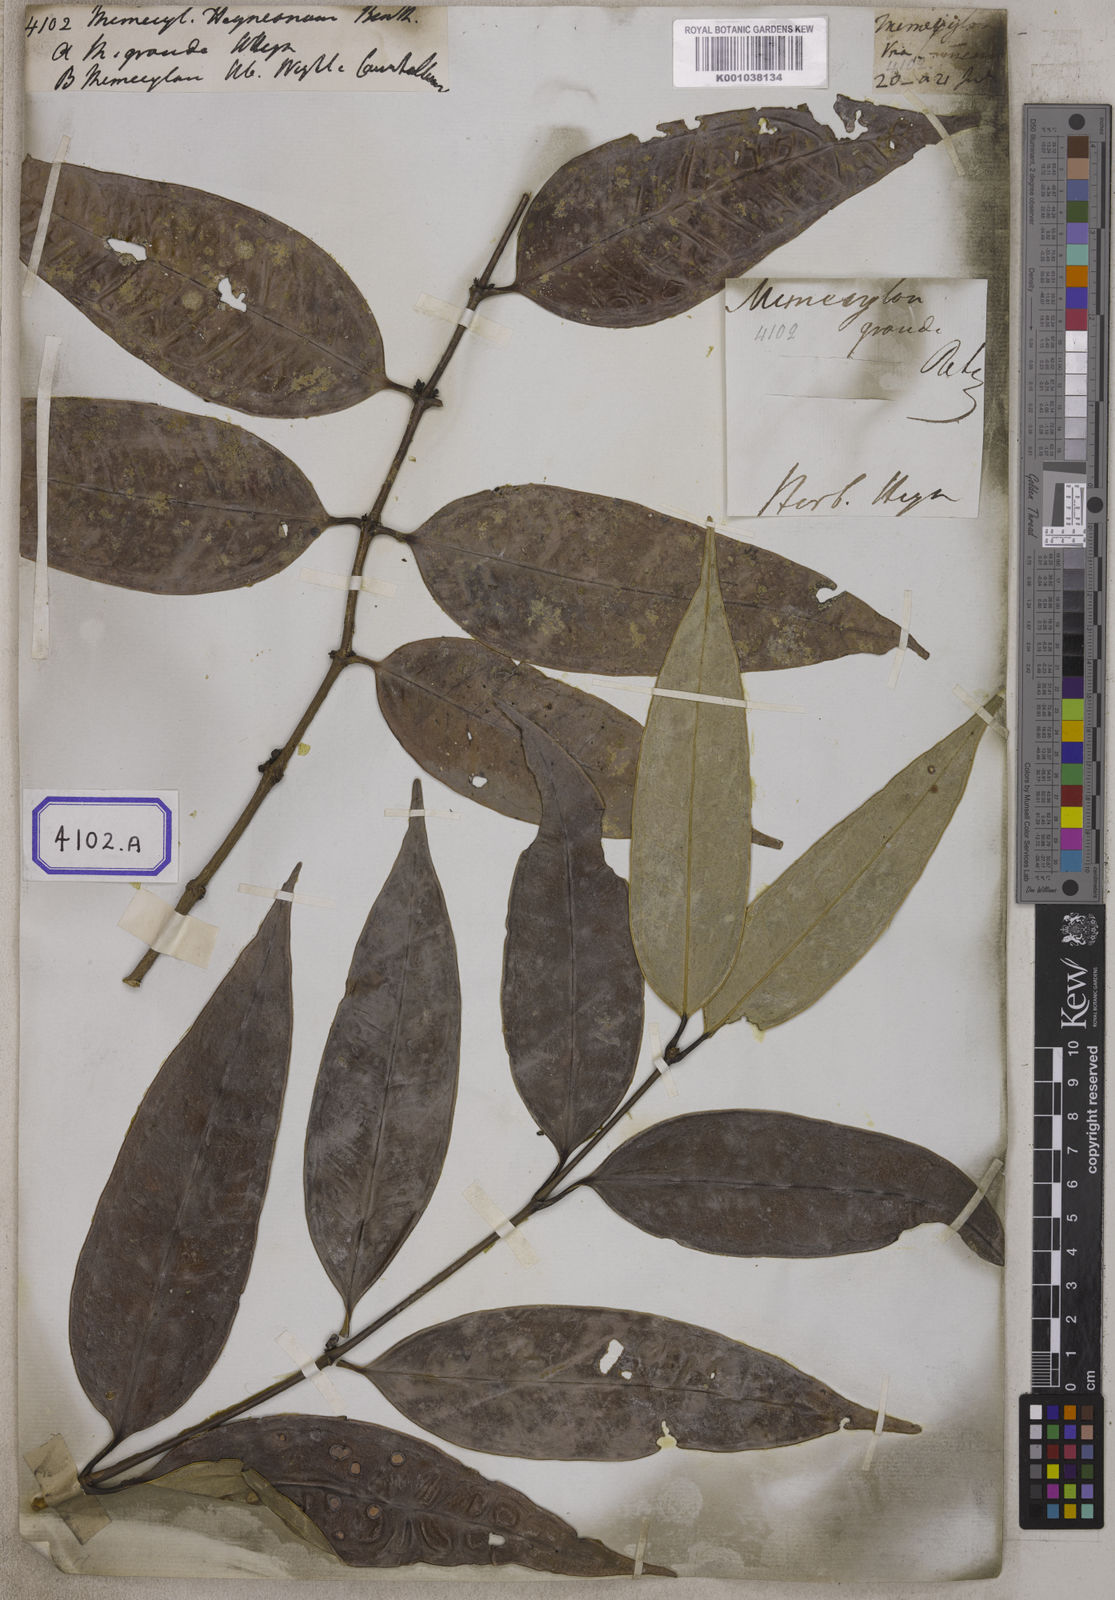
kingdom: Plantae
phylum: Tracheophyta
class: Magnoliopsida
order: Myrtales
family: Melastomataceae
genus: Memecylon
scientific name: Memecylon
